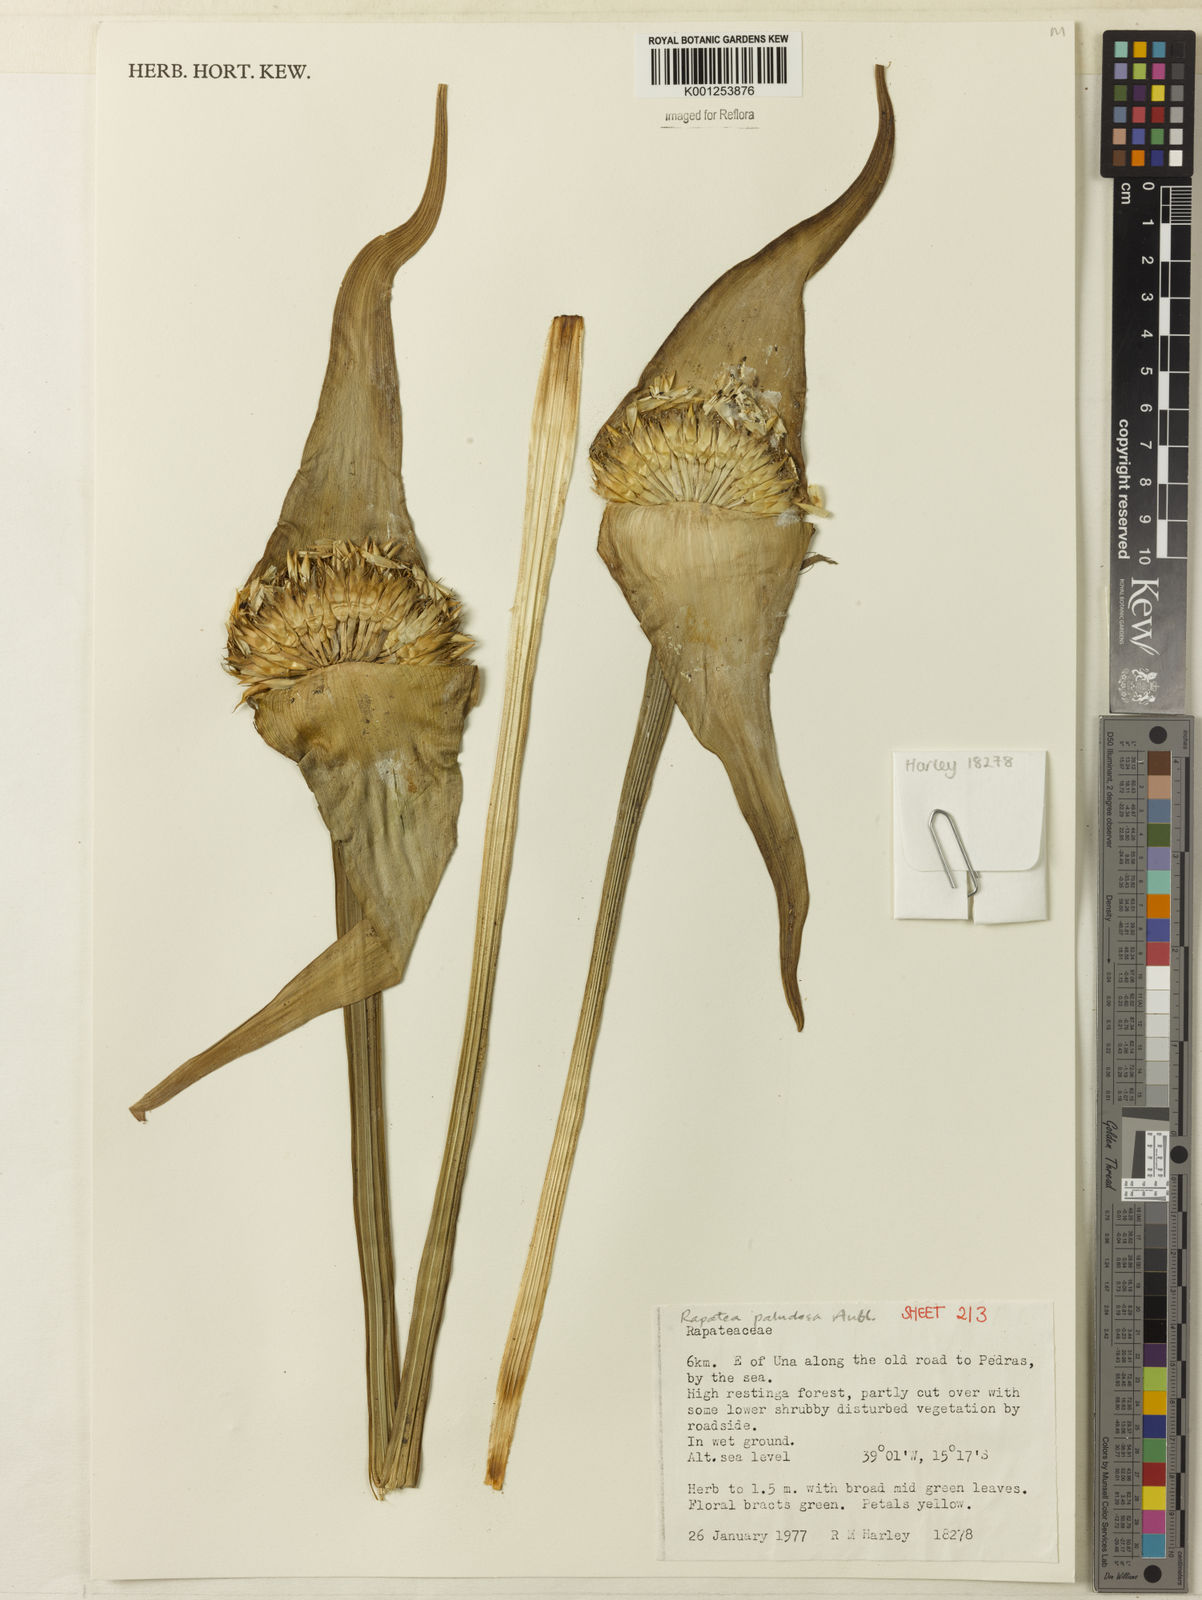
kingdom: Plantae
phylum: Tracheophyta
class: Liliopsida
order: Poales
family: Rapateaceae
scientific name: Rapateaceae
